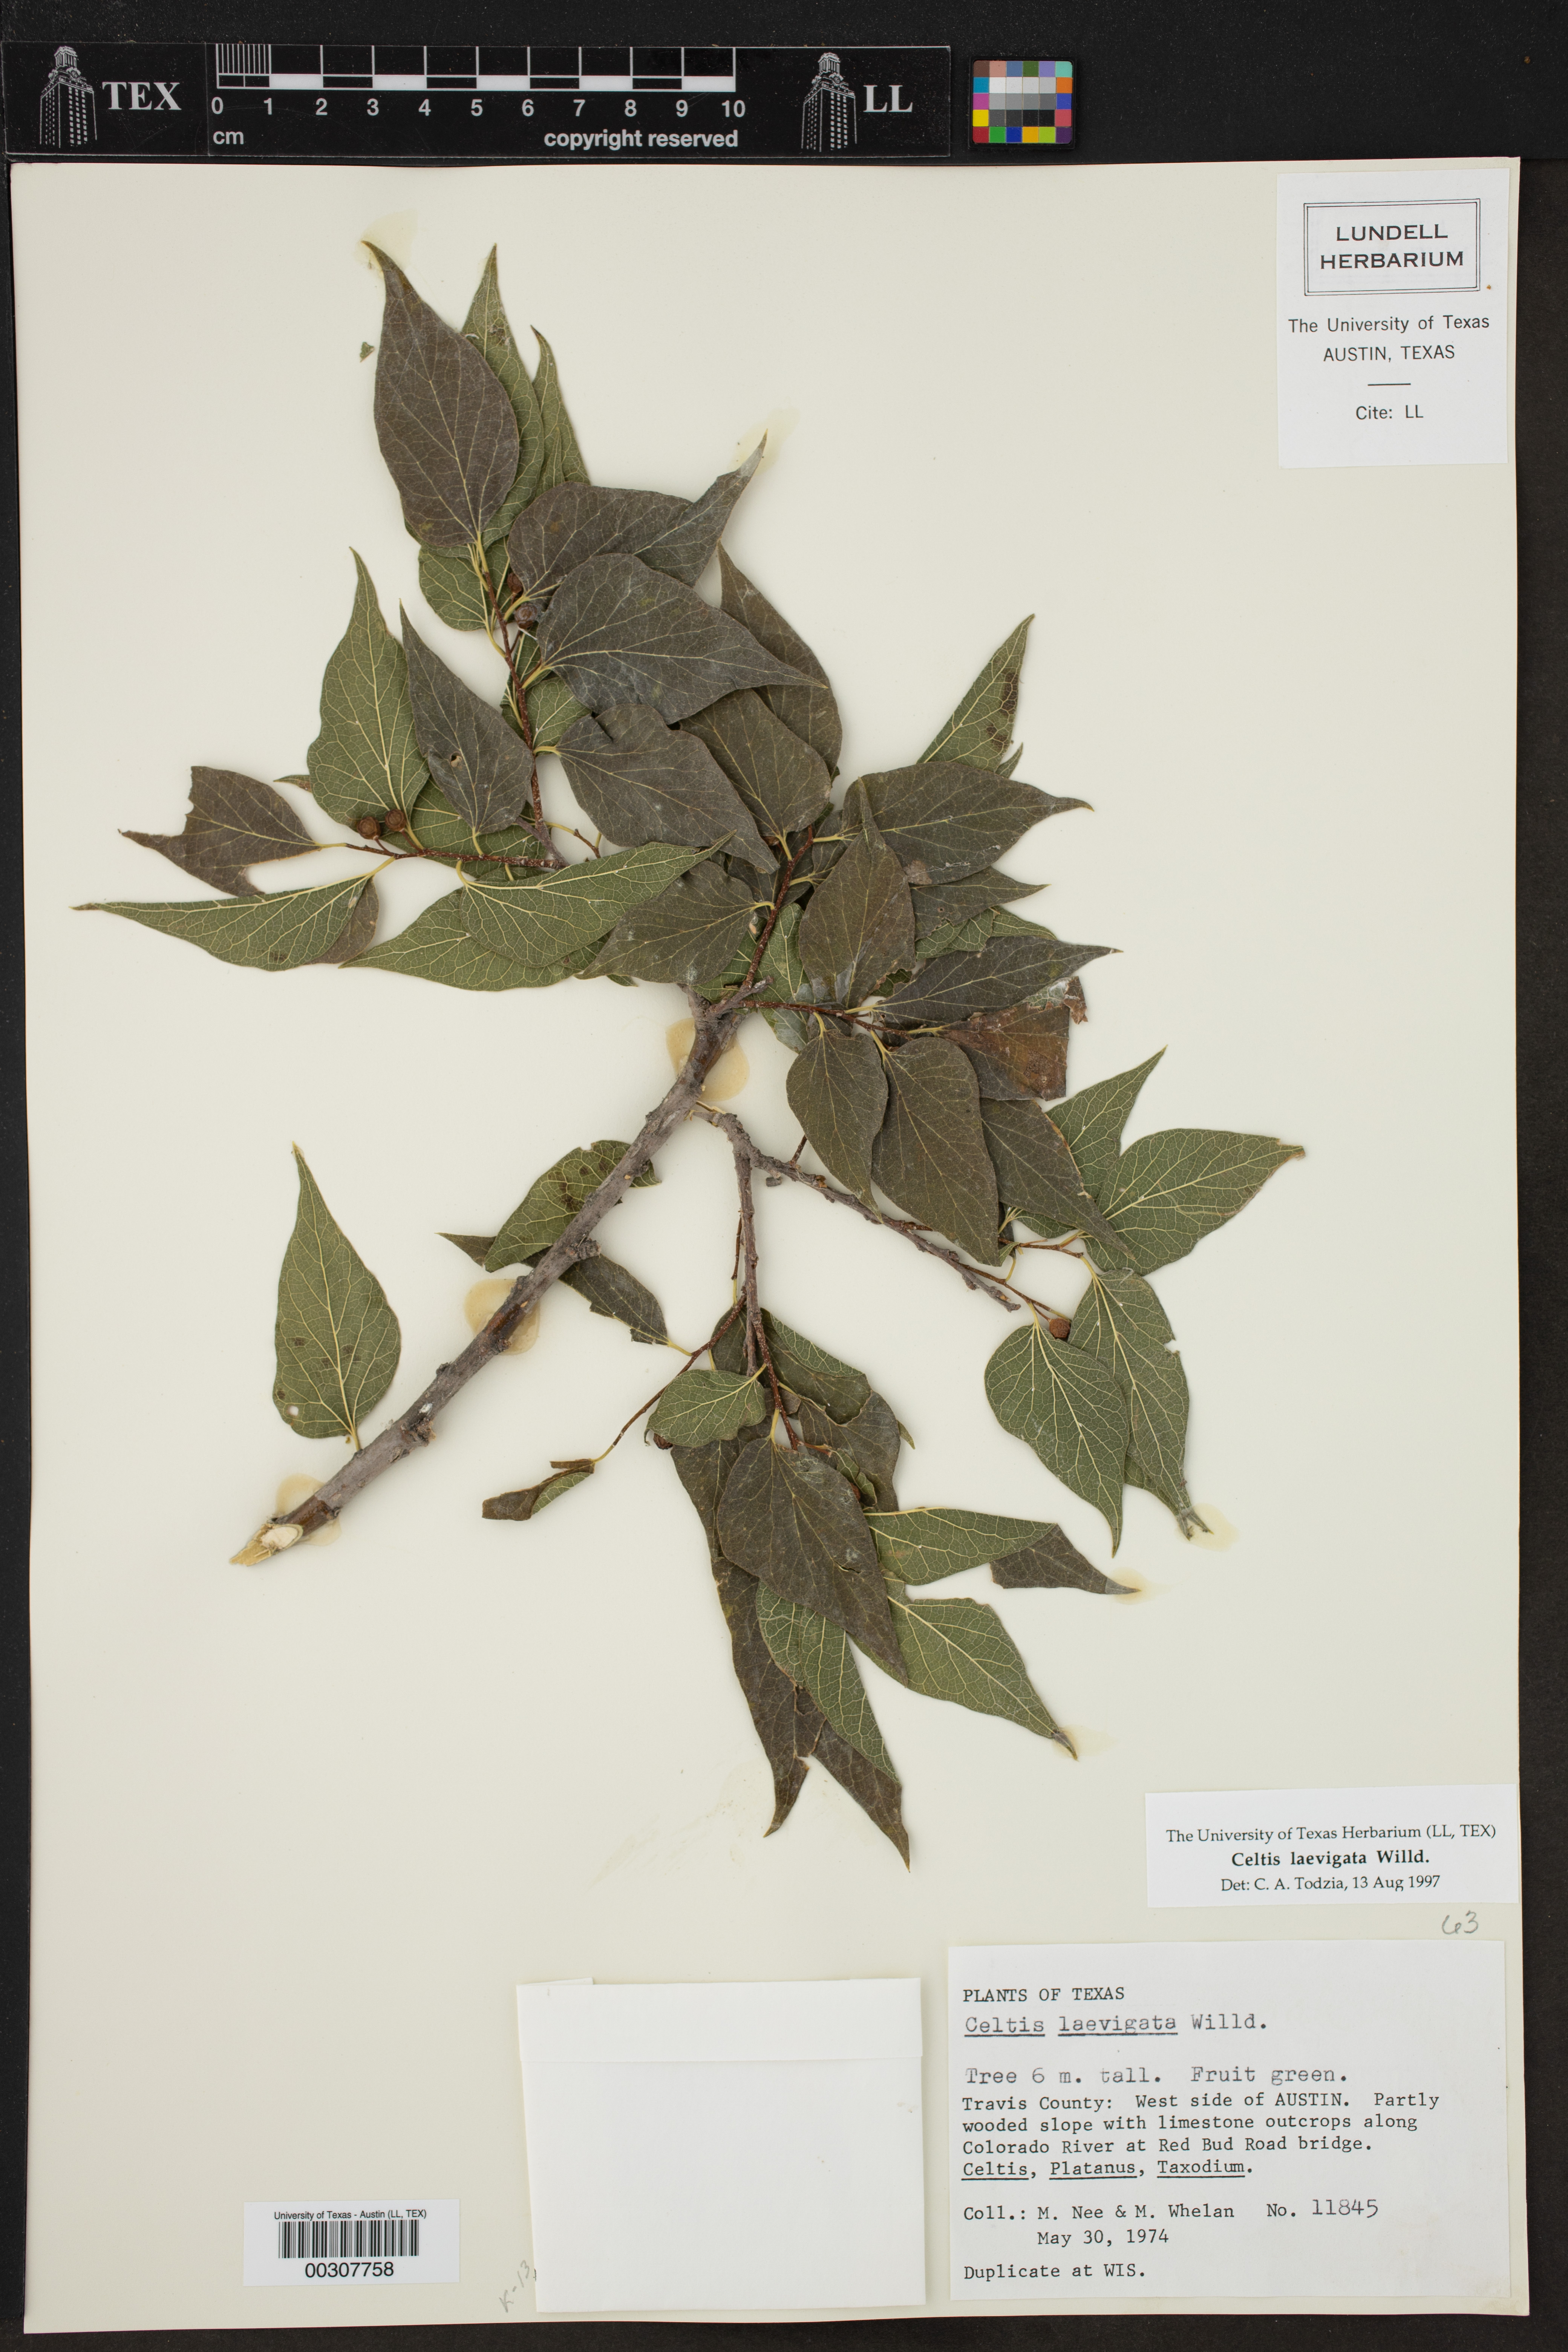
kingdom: Plantae
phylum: Tracheophyta
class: Magnoliopsida
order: Rosales
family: Cannabaceae
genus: Celtis
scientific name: Celtis laevigata
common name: Sugarberry
